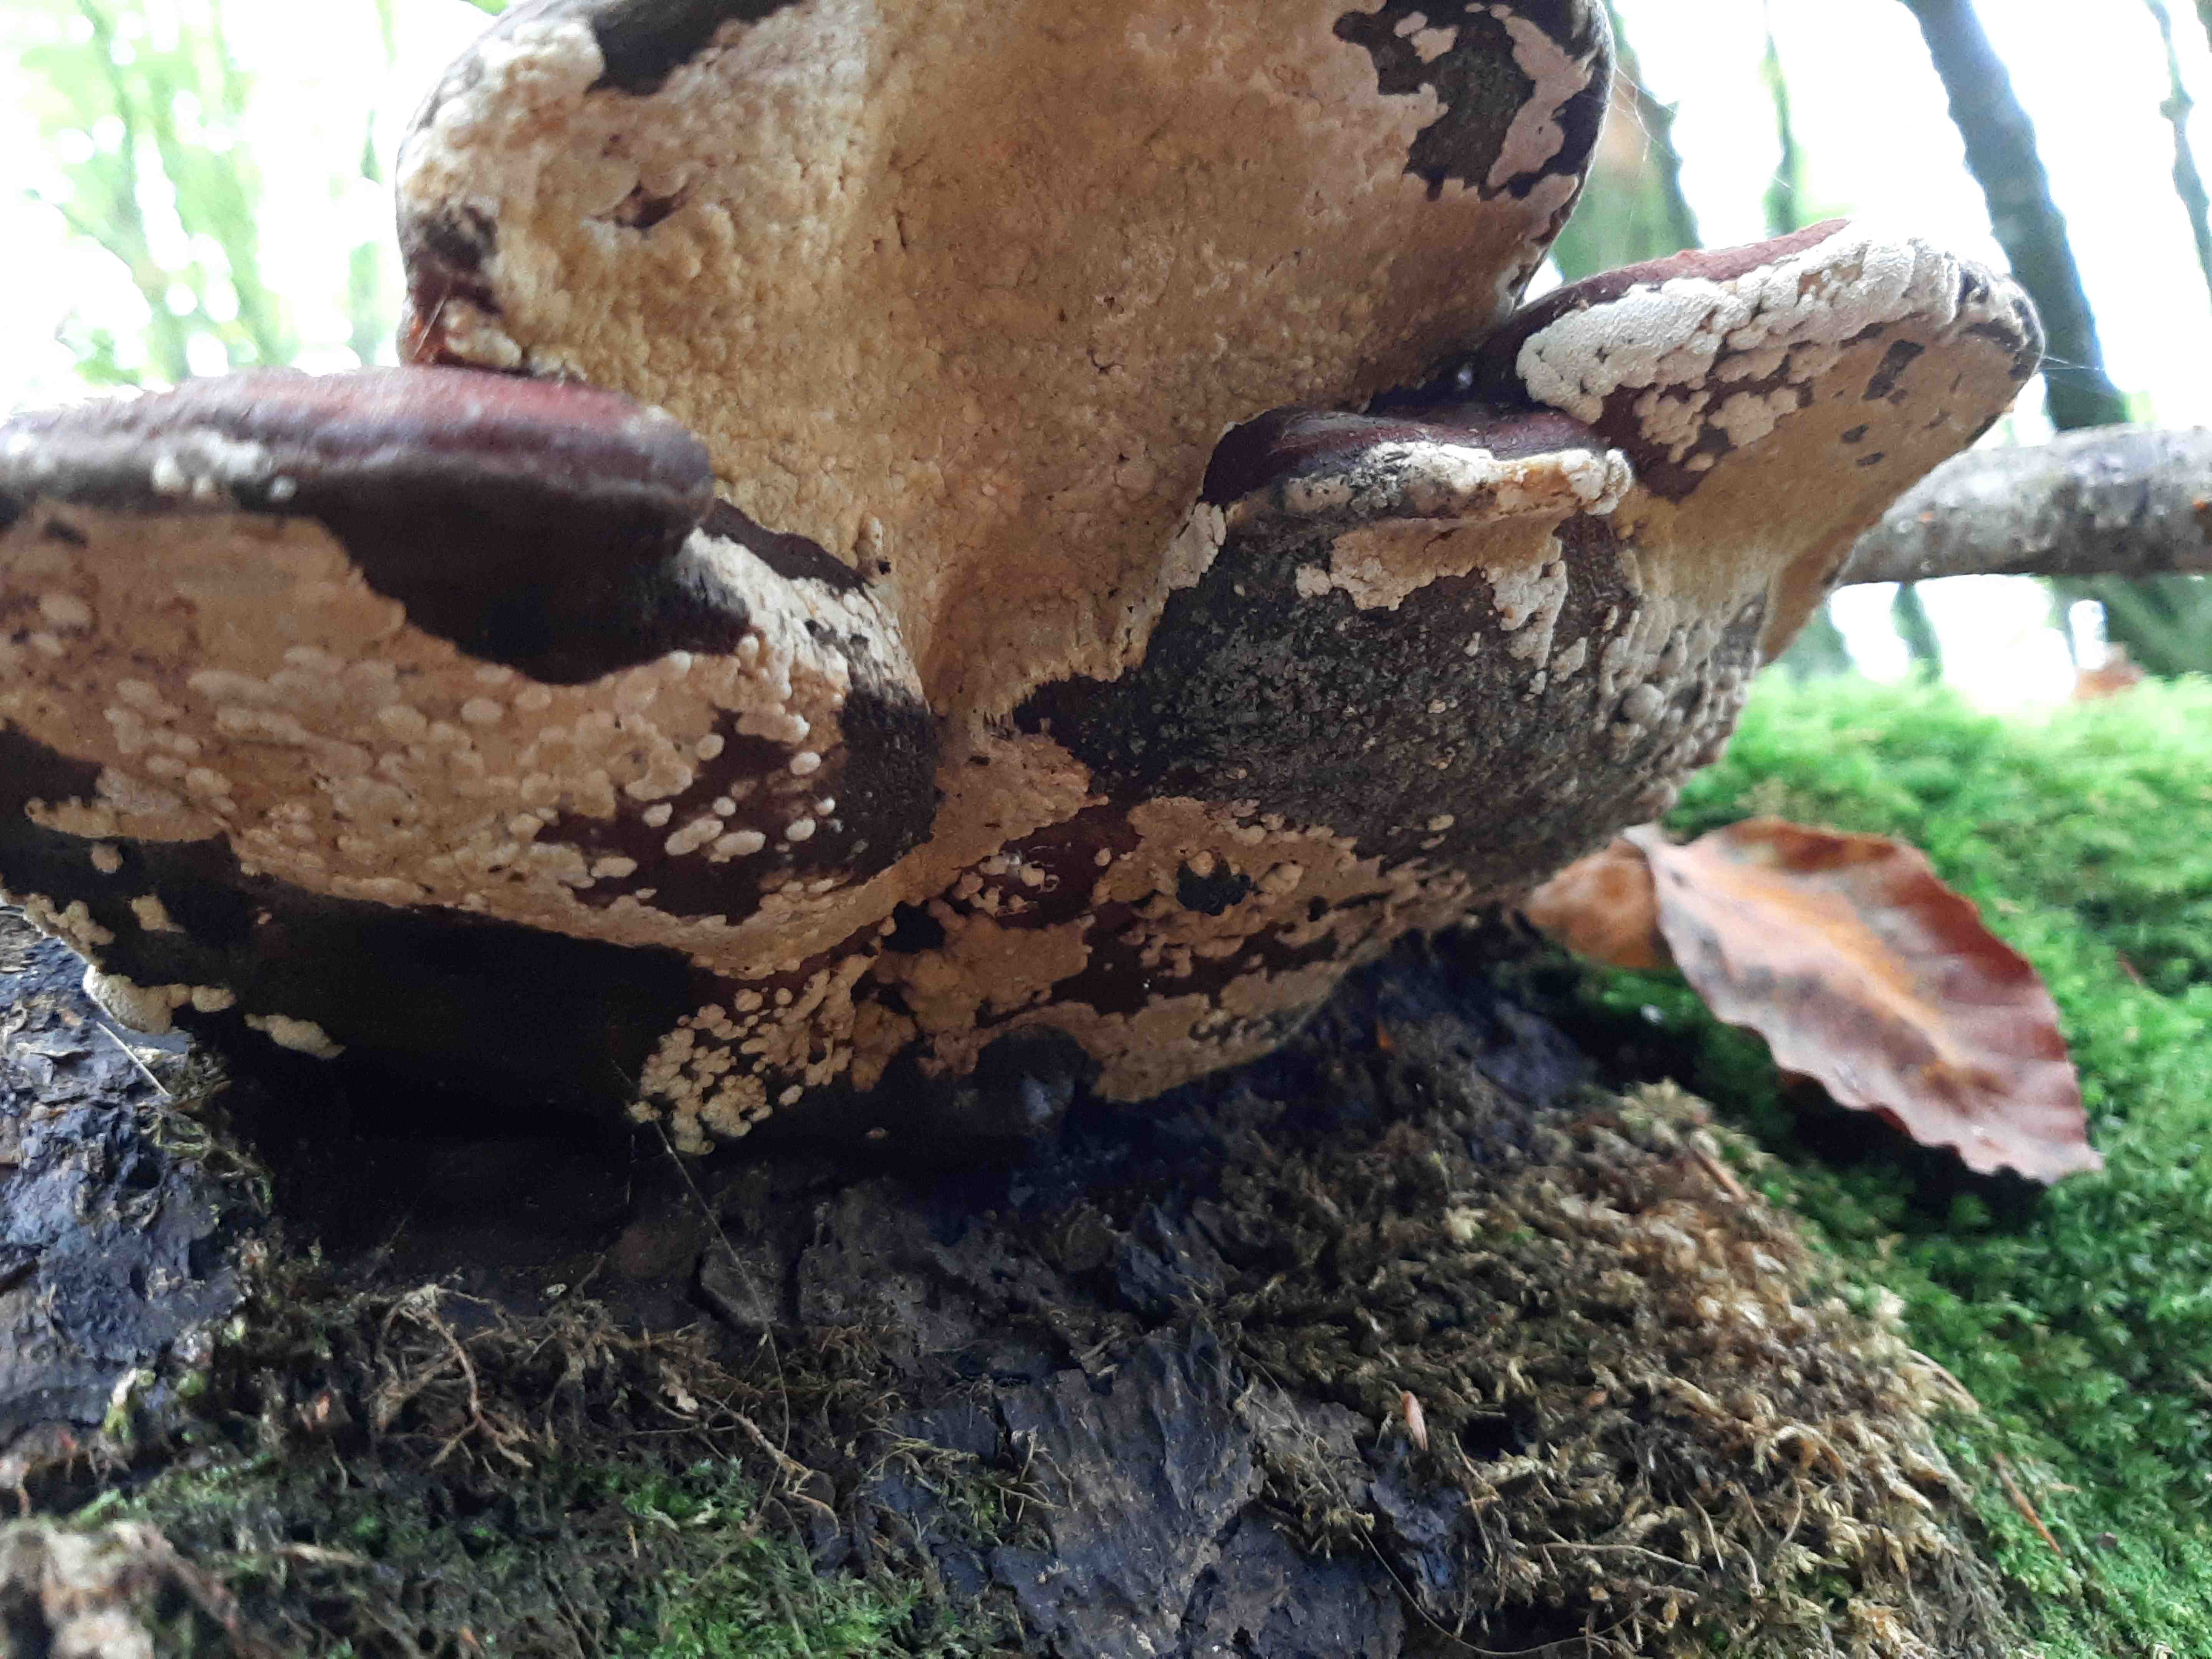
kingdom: Fungi
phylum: Basidiomycota
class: Agaricomycetes
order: Polyporales
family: Fomitopsidaceae
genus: Fomitopsis
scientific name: Fomitopsis pinicola
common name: randbæltet hovporesvamp
